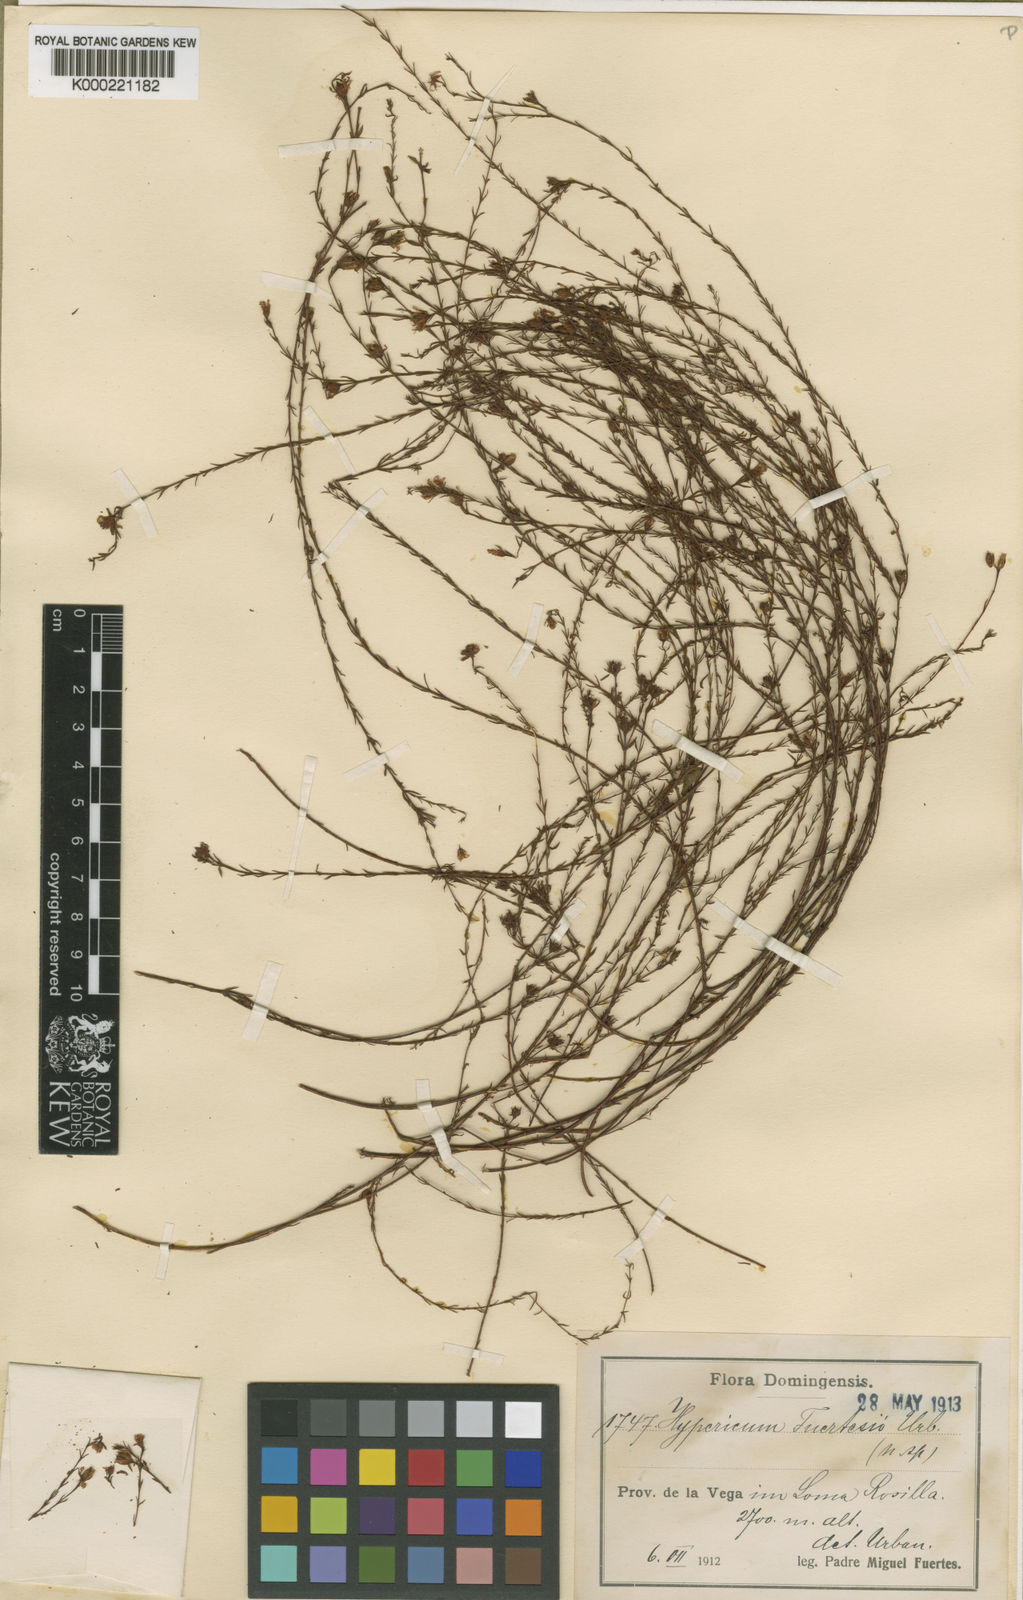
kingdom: Plantae
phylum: Tracheophyta
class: Magnoliopsida
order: Malpighiales
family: Hypericaceae
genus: Hypericum
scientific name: Hypericum fuertesii
